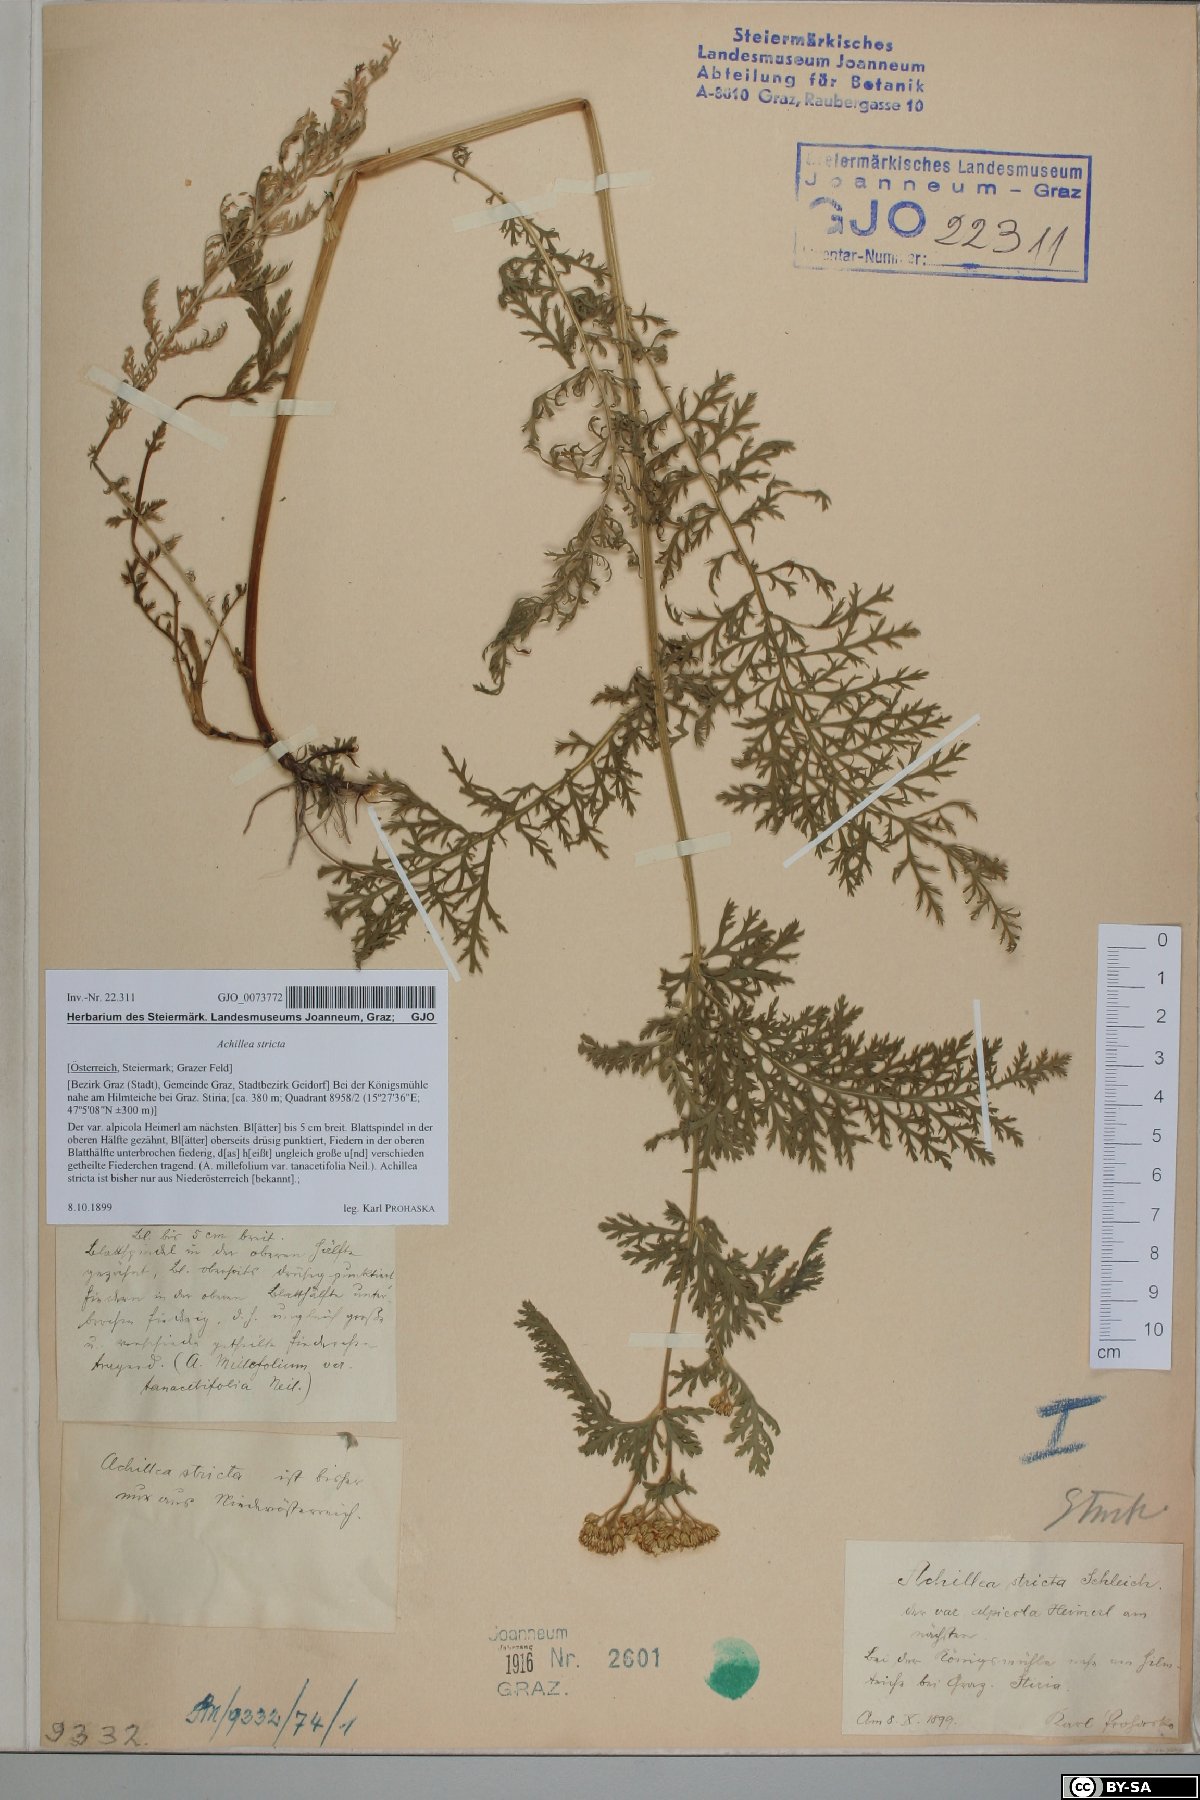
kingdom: Plantae
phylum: Tracheophyta
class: Magnoliopsida
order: Asterales
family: Asteraceae
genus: Achillea
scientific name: Achillea distans
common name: Tall yarrow
